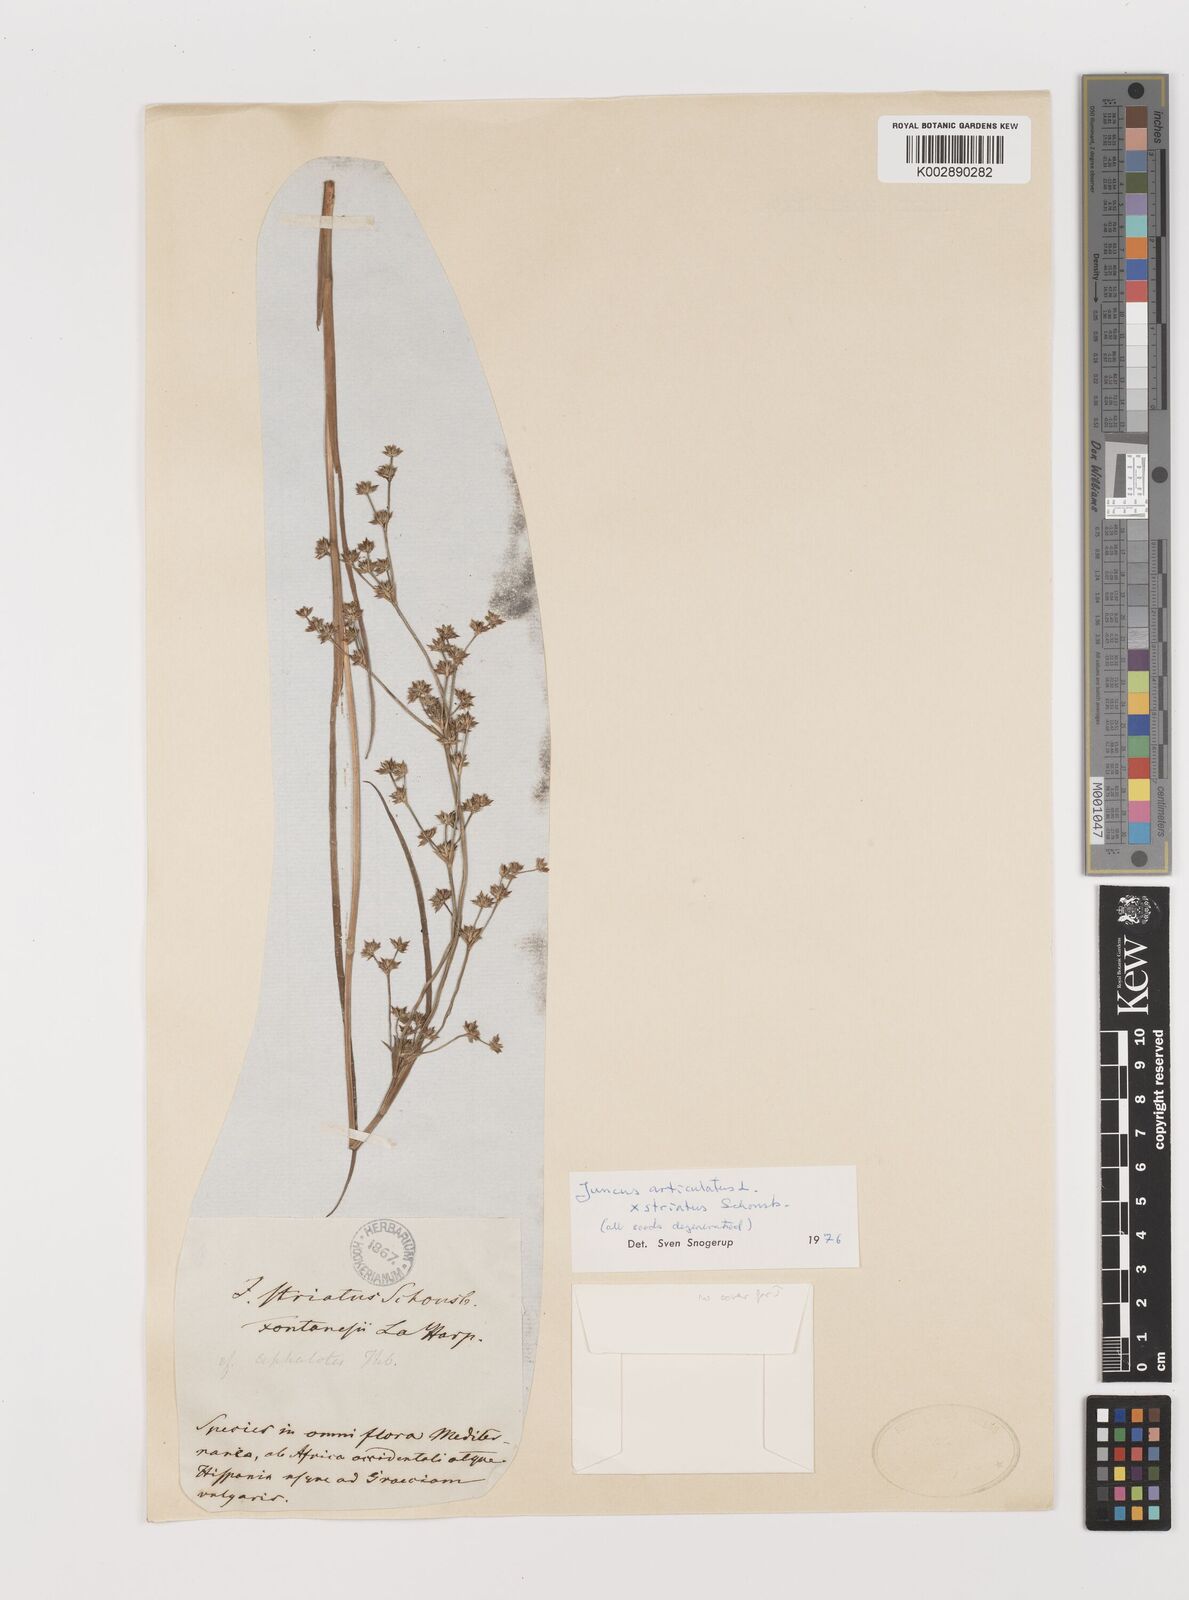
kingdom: Plantae
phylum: Tracheophyta
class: Liliopsida
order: Poales
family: Juncaceae
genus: Juncus
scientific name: Juncus articulatus
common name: Jointed rush
